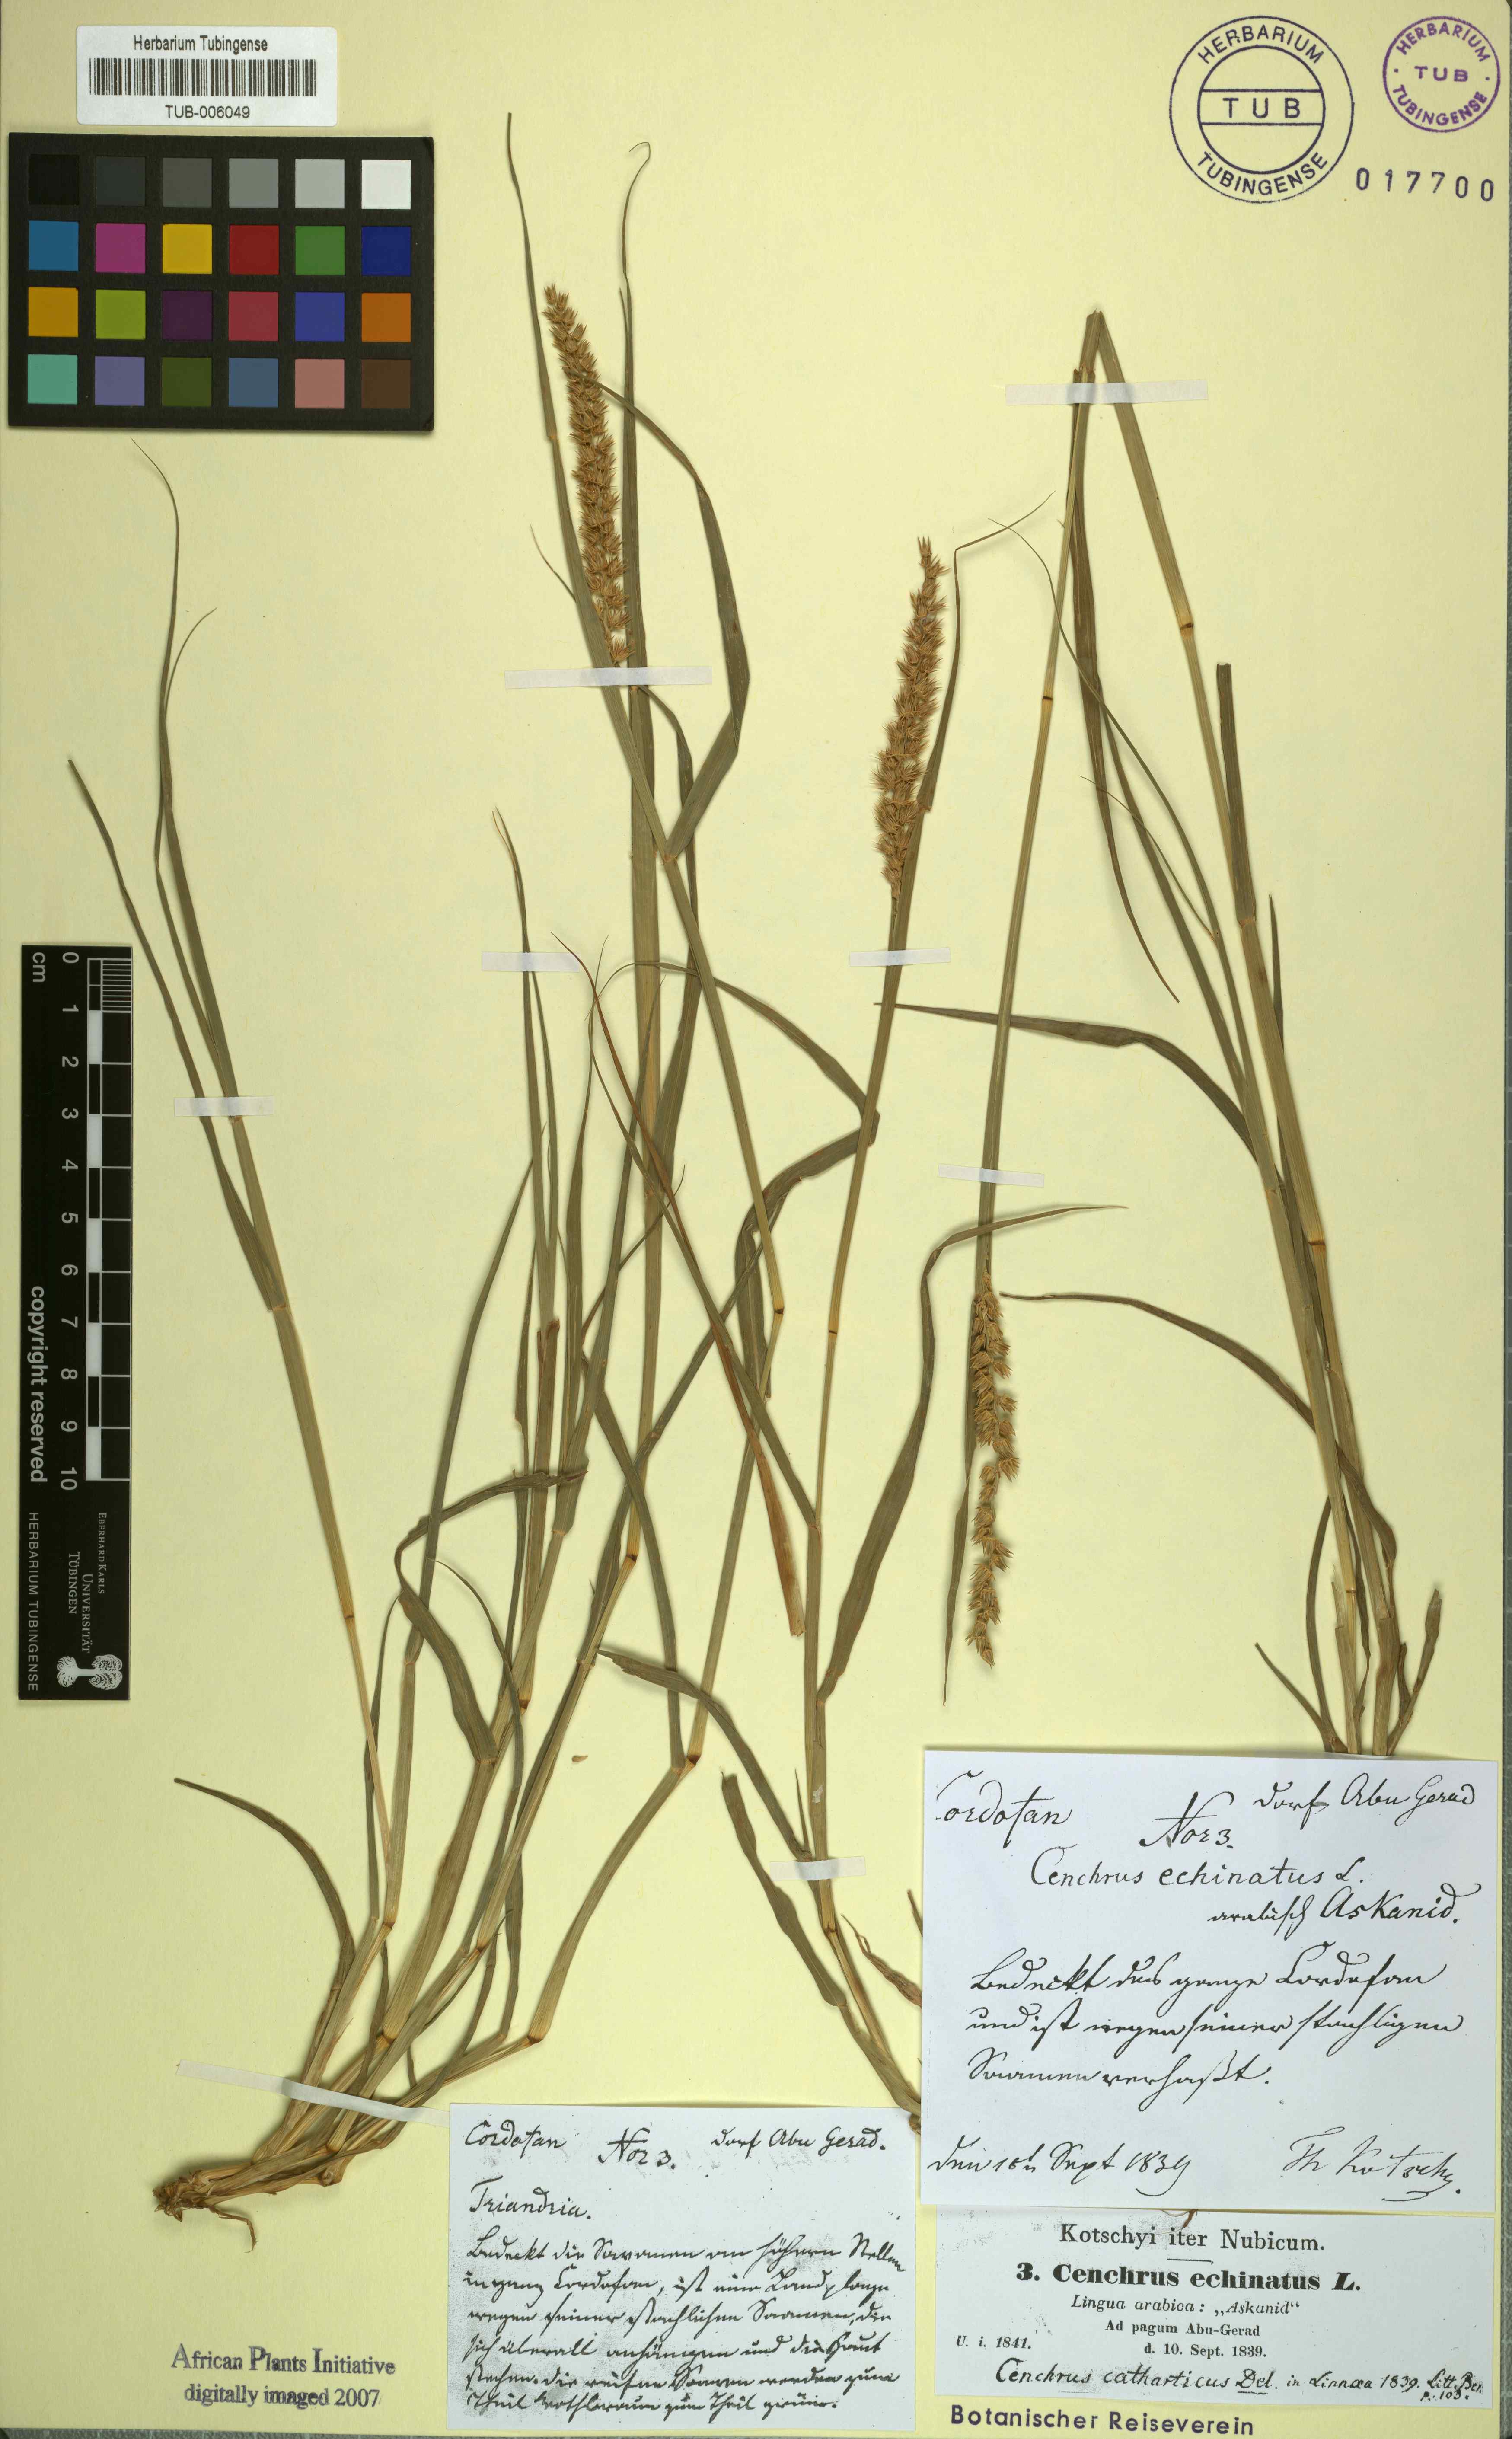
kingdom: Plantae
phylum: Tracheophyta
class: Liliopsida
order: Poales
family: Poaceae
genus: Cenchrus
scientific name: Cenchrus echinatus
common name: Southern sandbur
